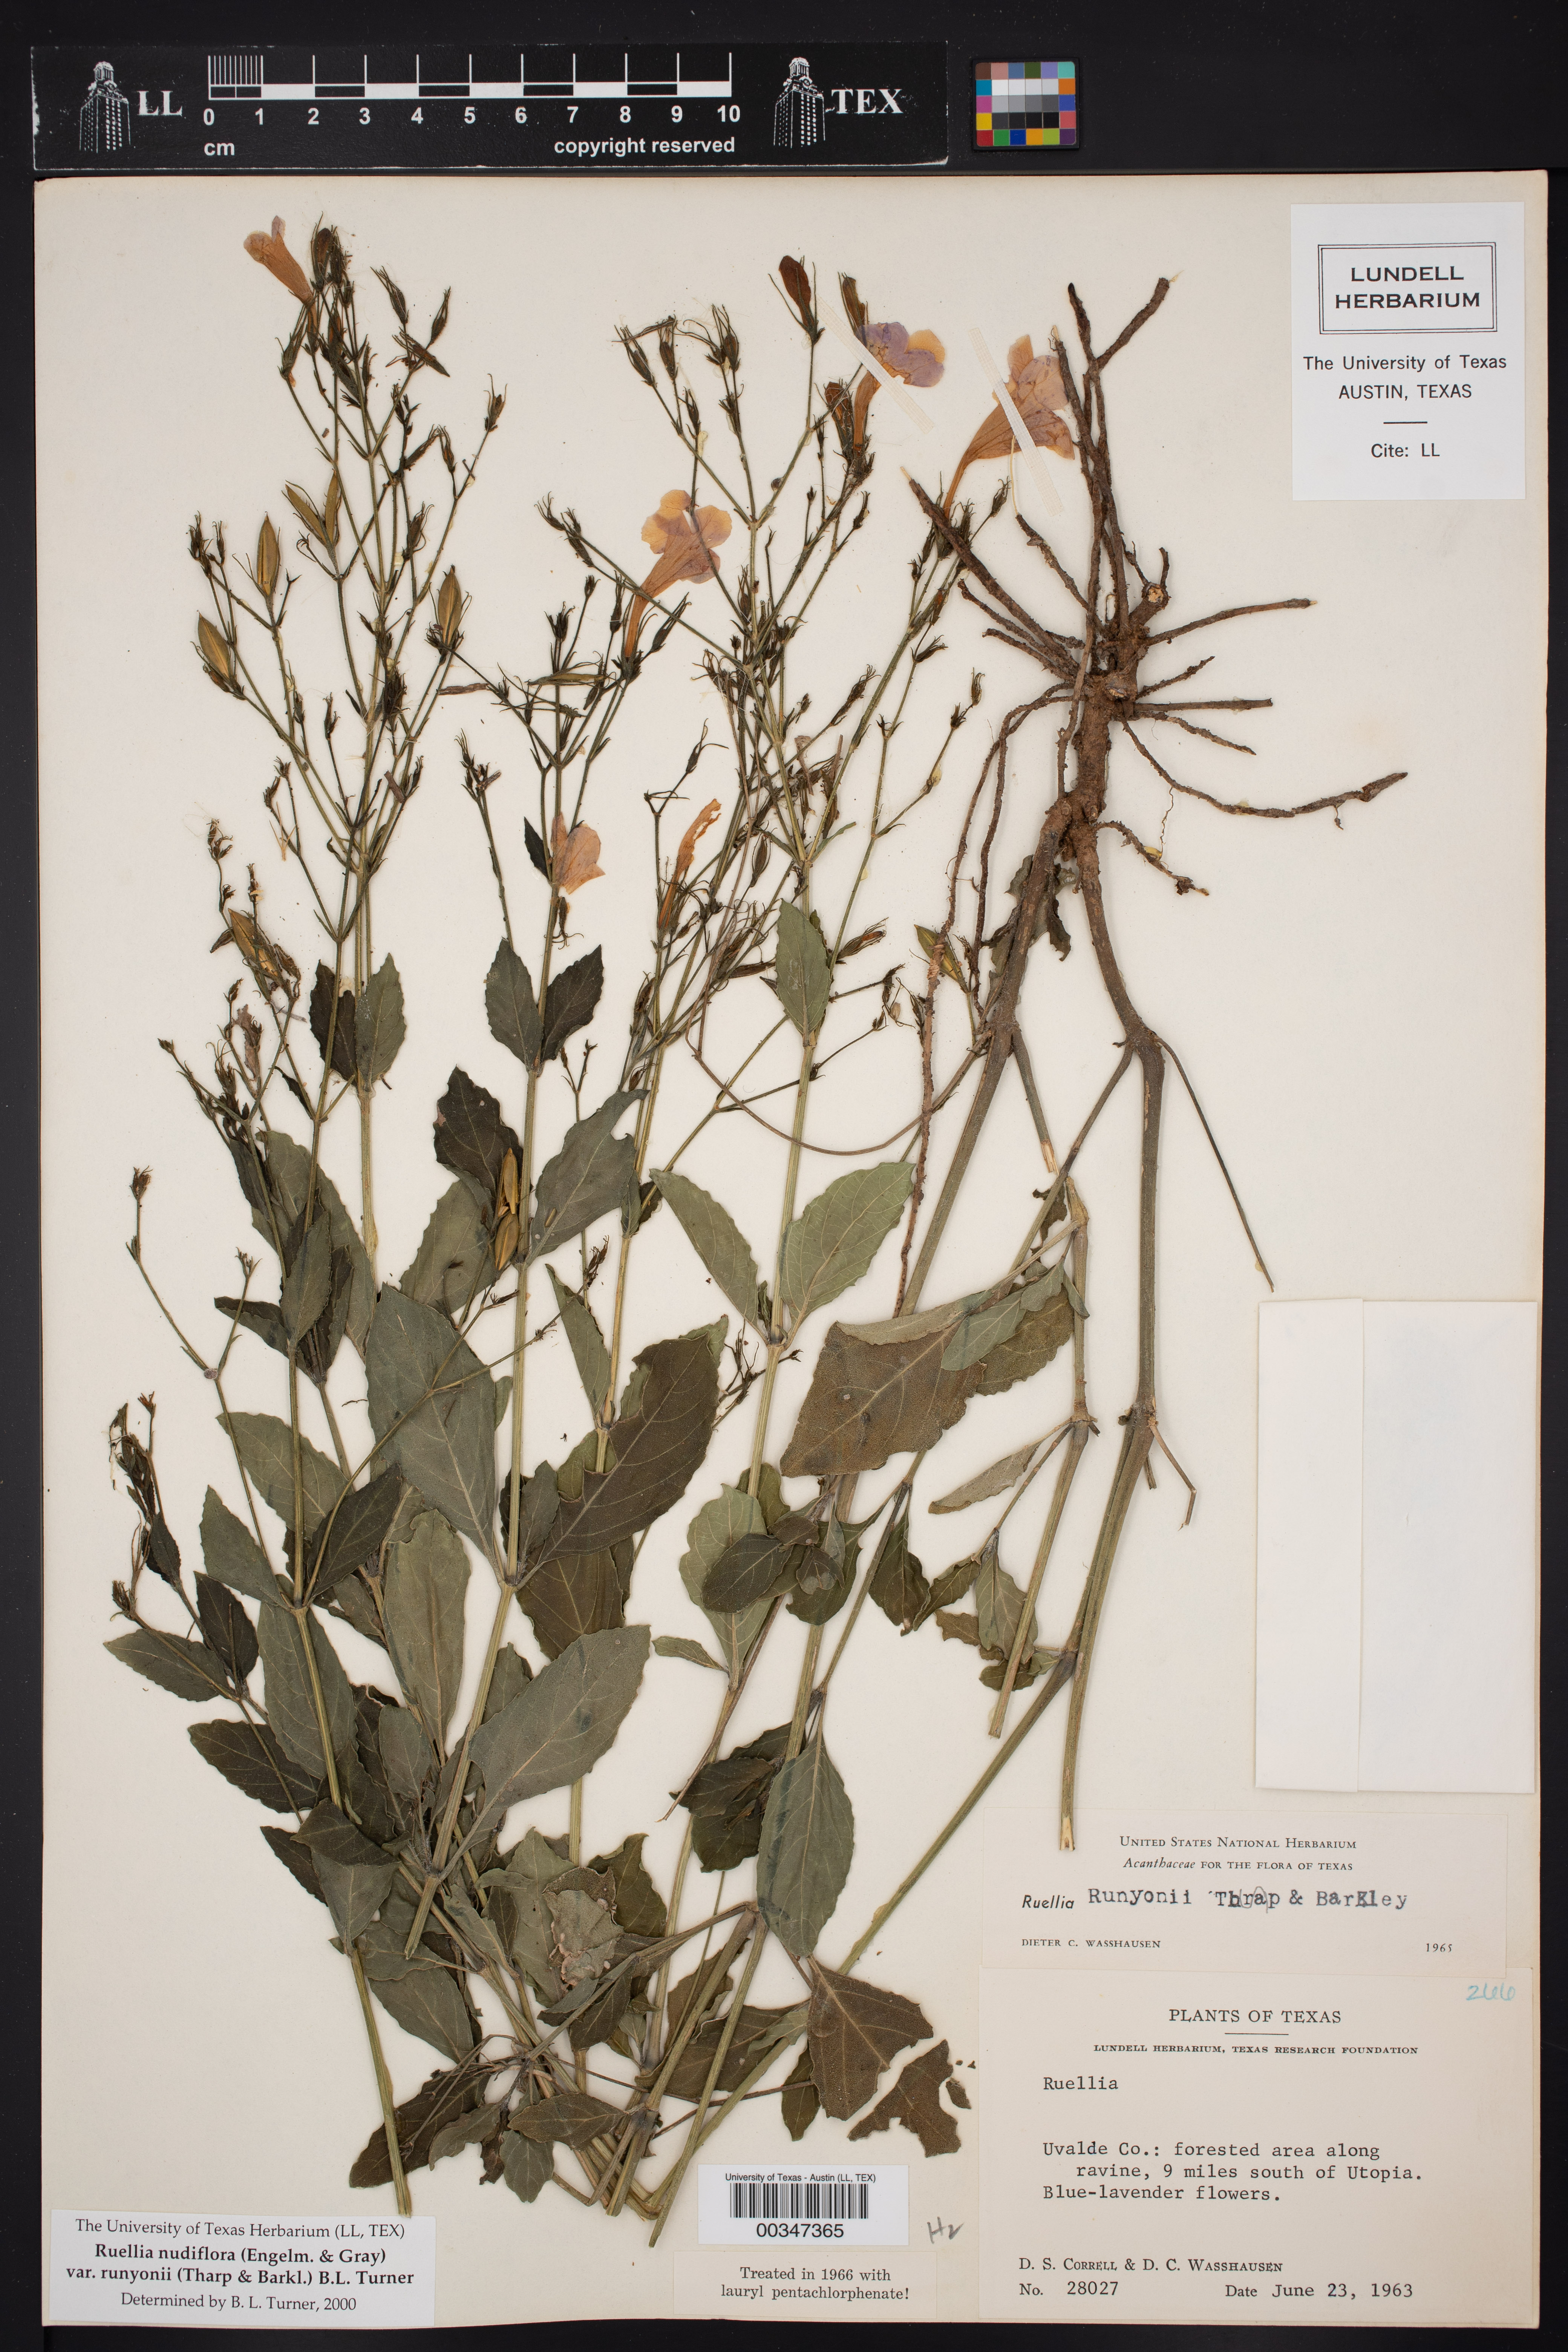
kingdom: Plantae
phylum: Tracheophyta
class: Magnoliopsida
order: Lamiales
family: Acanthaceae
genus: Ruellia
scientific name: Ruellia ciliatiflora
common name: Hairyflower wild petunia
